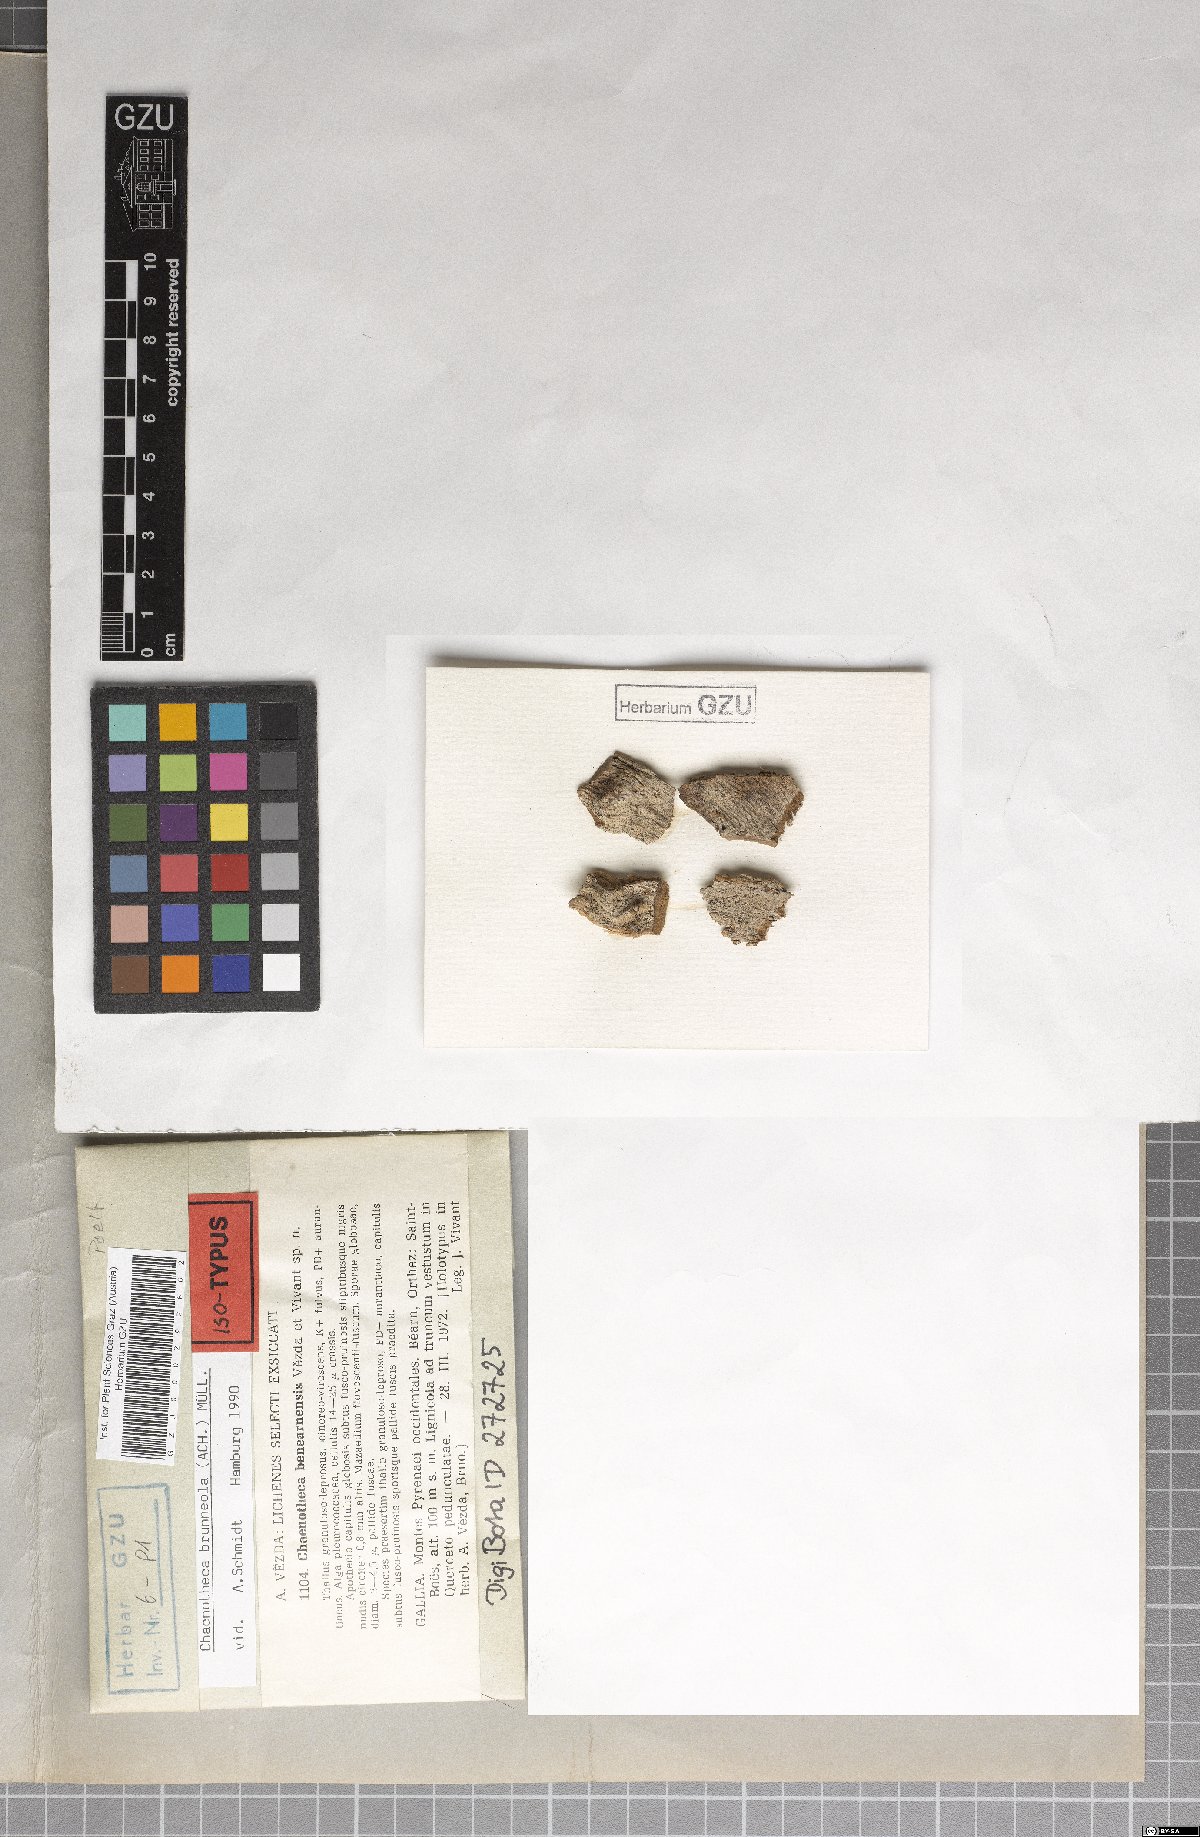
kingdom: Fungi
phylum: Ascomycota
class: Coniocybomycetes
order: Coniocybales
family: Coniocybaceae
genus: Chaenotheca
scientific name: Chaenotheca benearnensis
